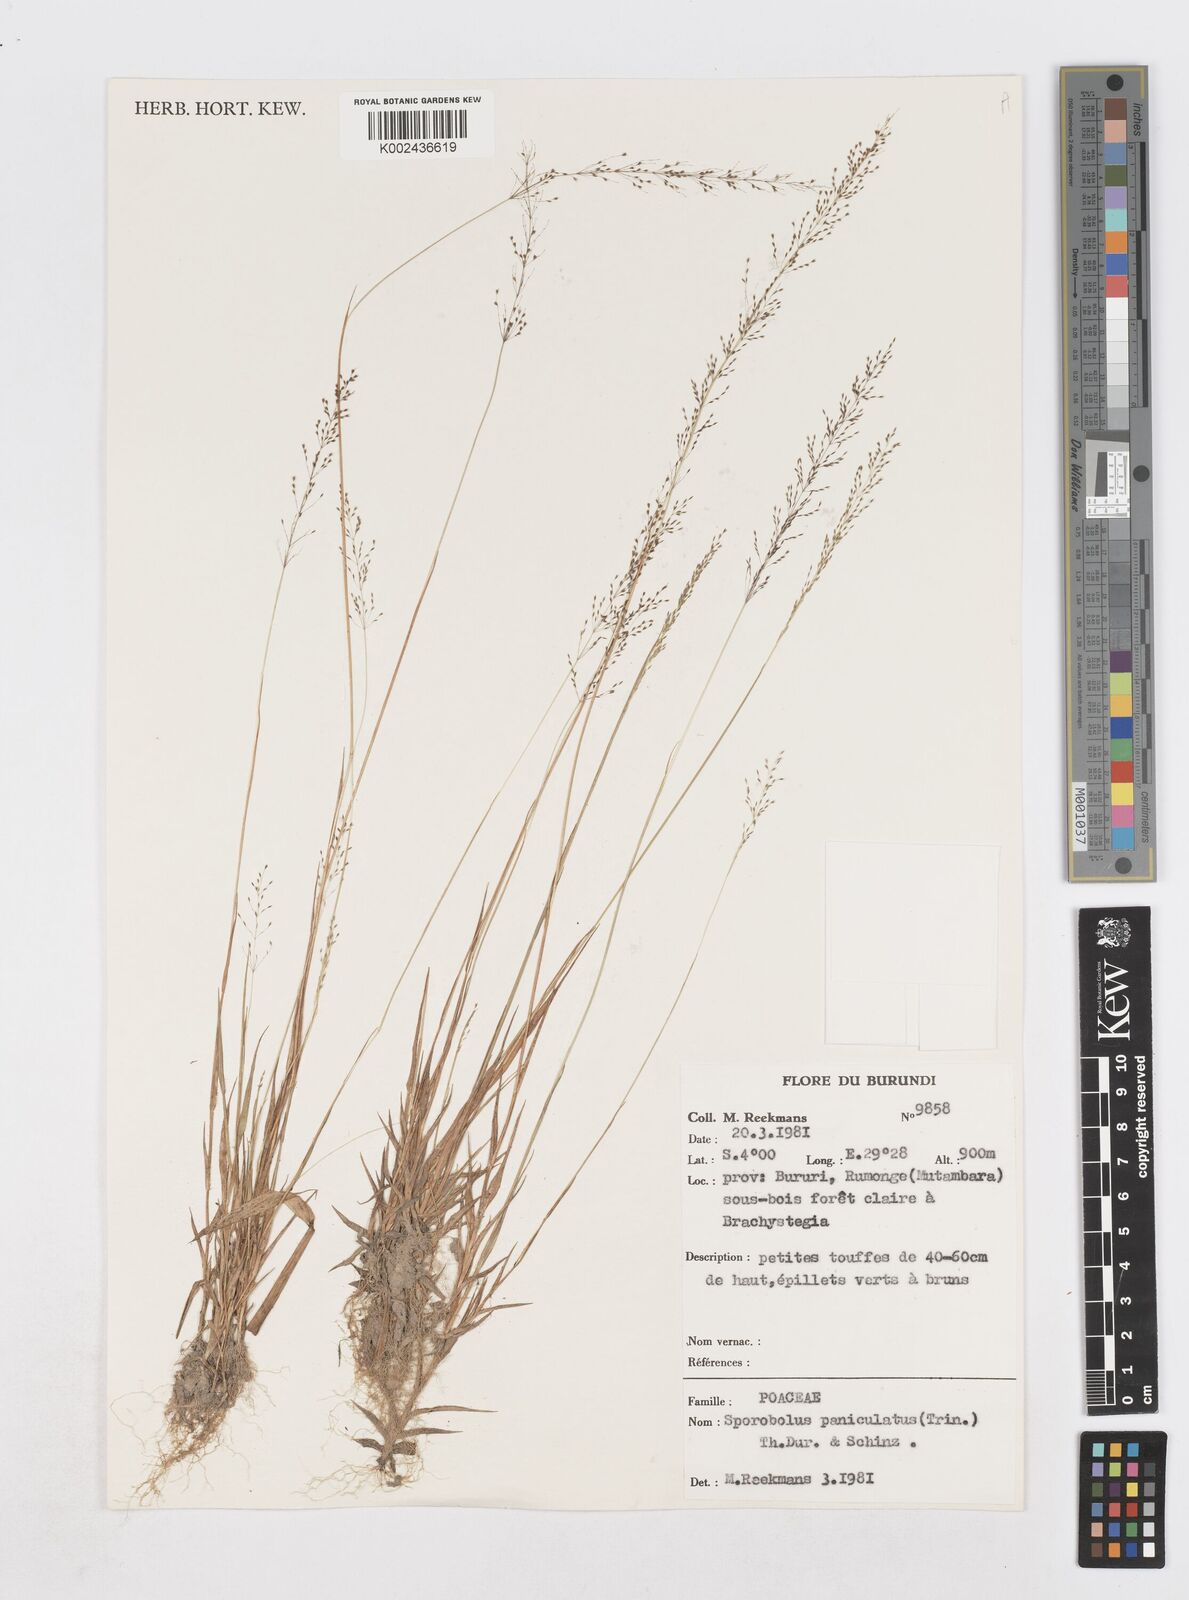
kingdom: Plantae
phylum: Tracheophyta
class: Liliopsida
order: Poales
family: Poaceae
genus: Sporobolus
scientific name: Sporobolus paniculatus
